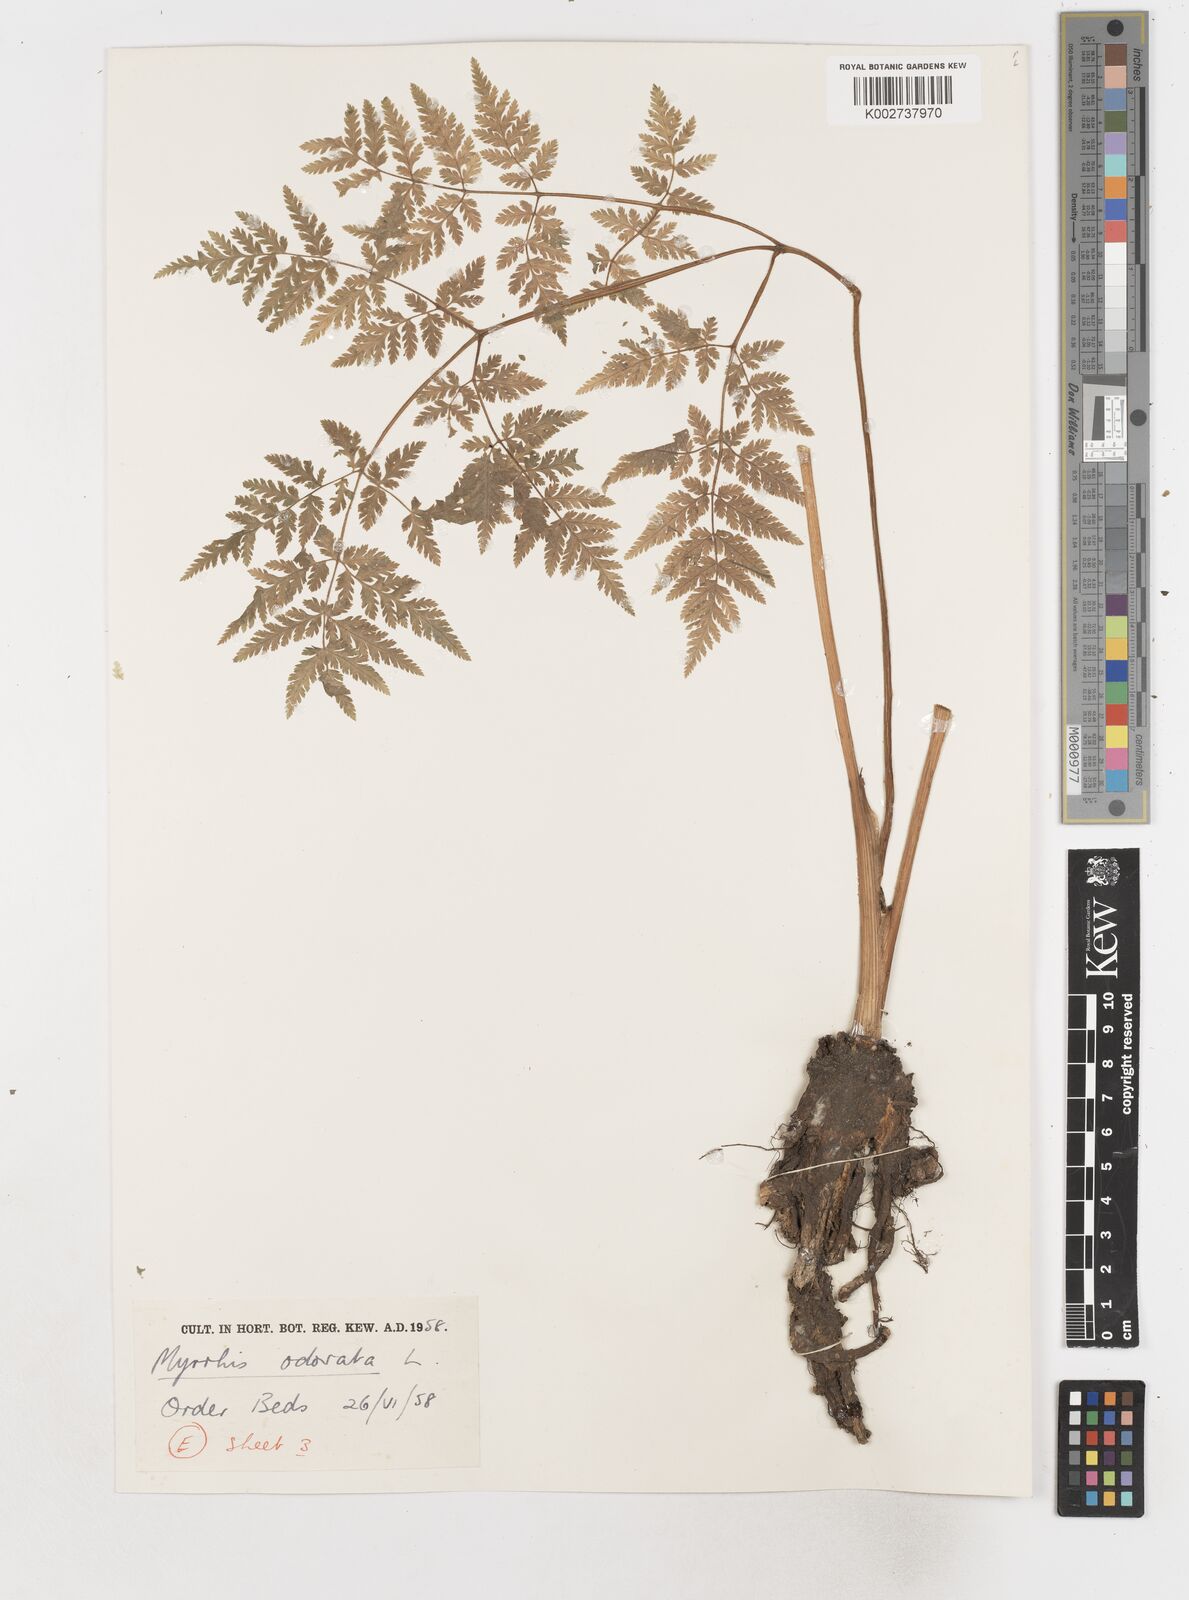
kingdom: Plantae
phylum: Tracheophyta
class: Magnoliopsida
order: Apiales
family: Apiaceae
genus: Myrrhis
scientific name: Myrrhis odorata
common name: Sweet cicely
